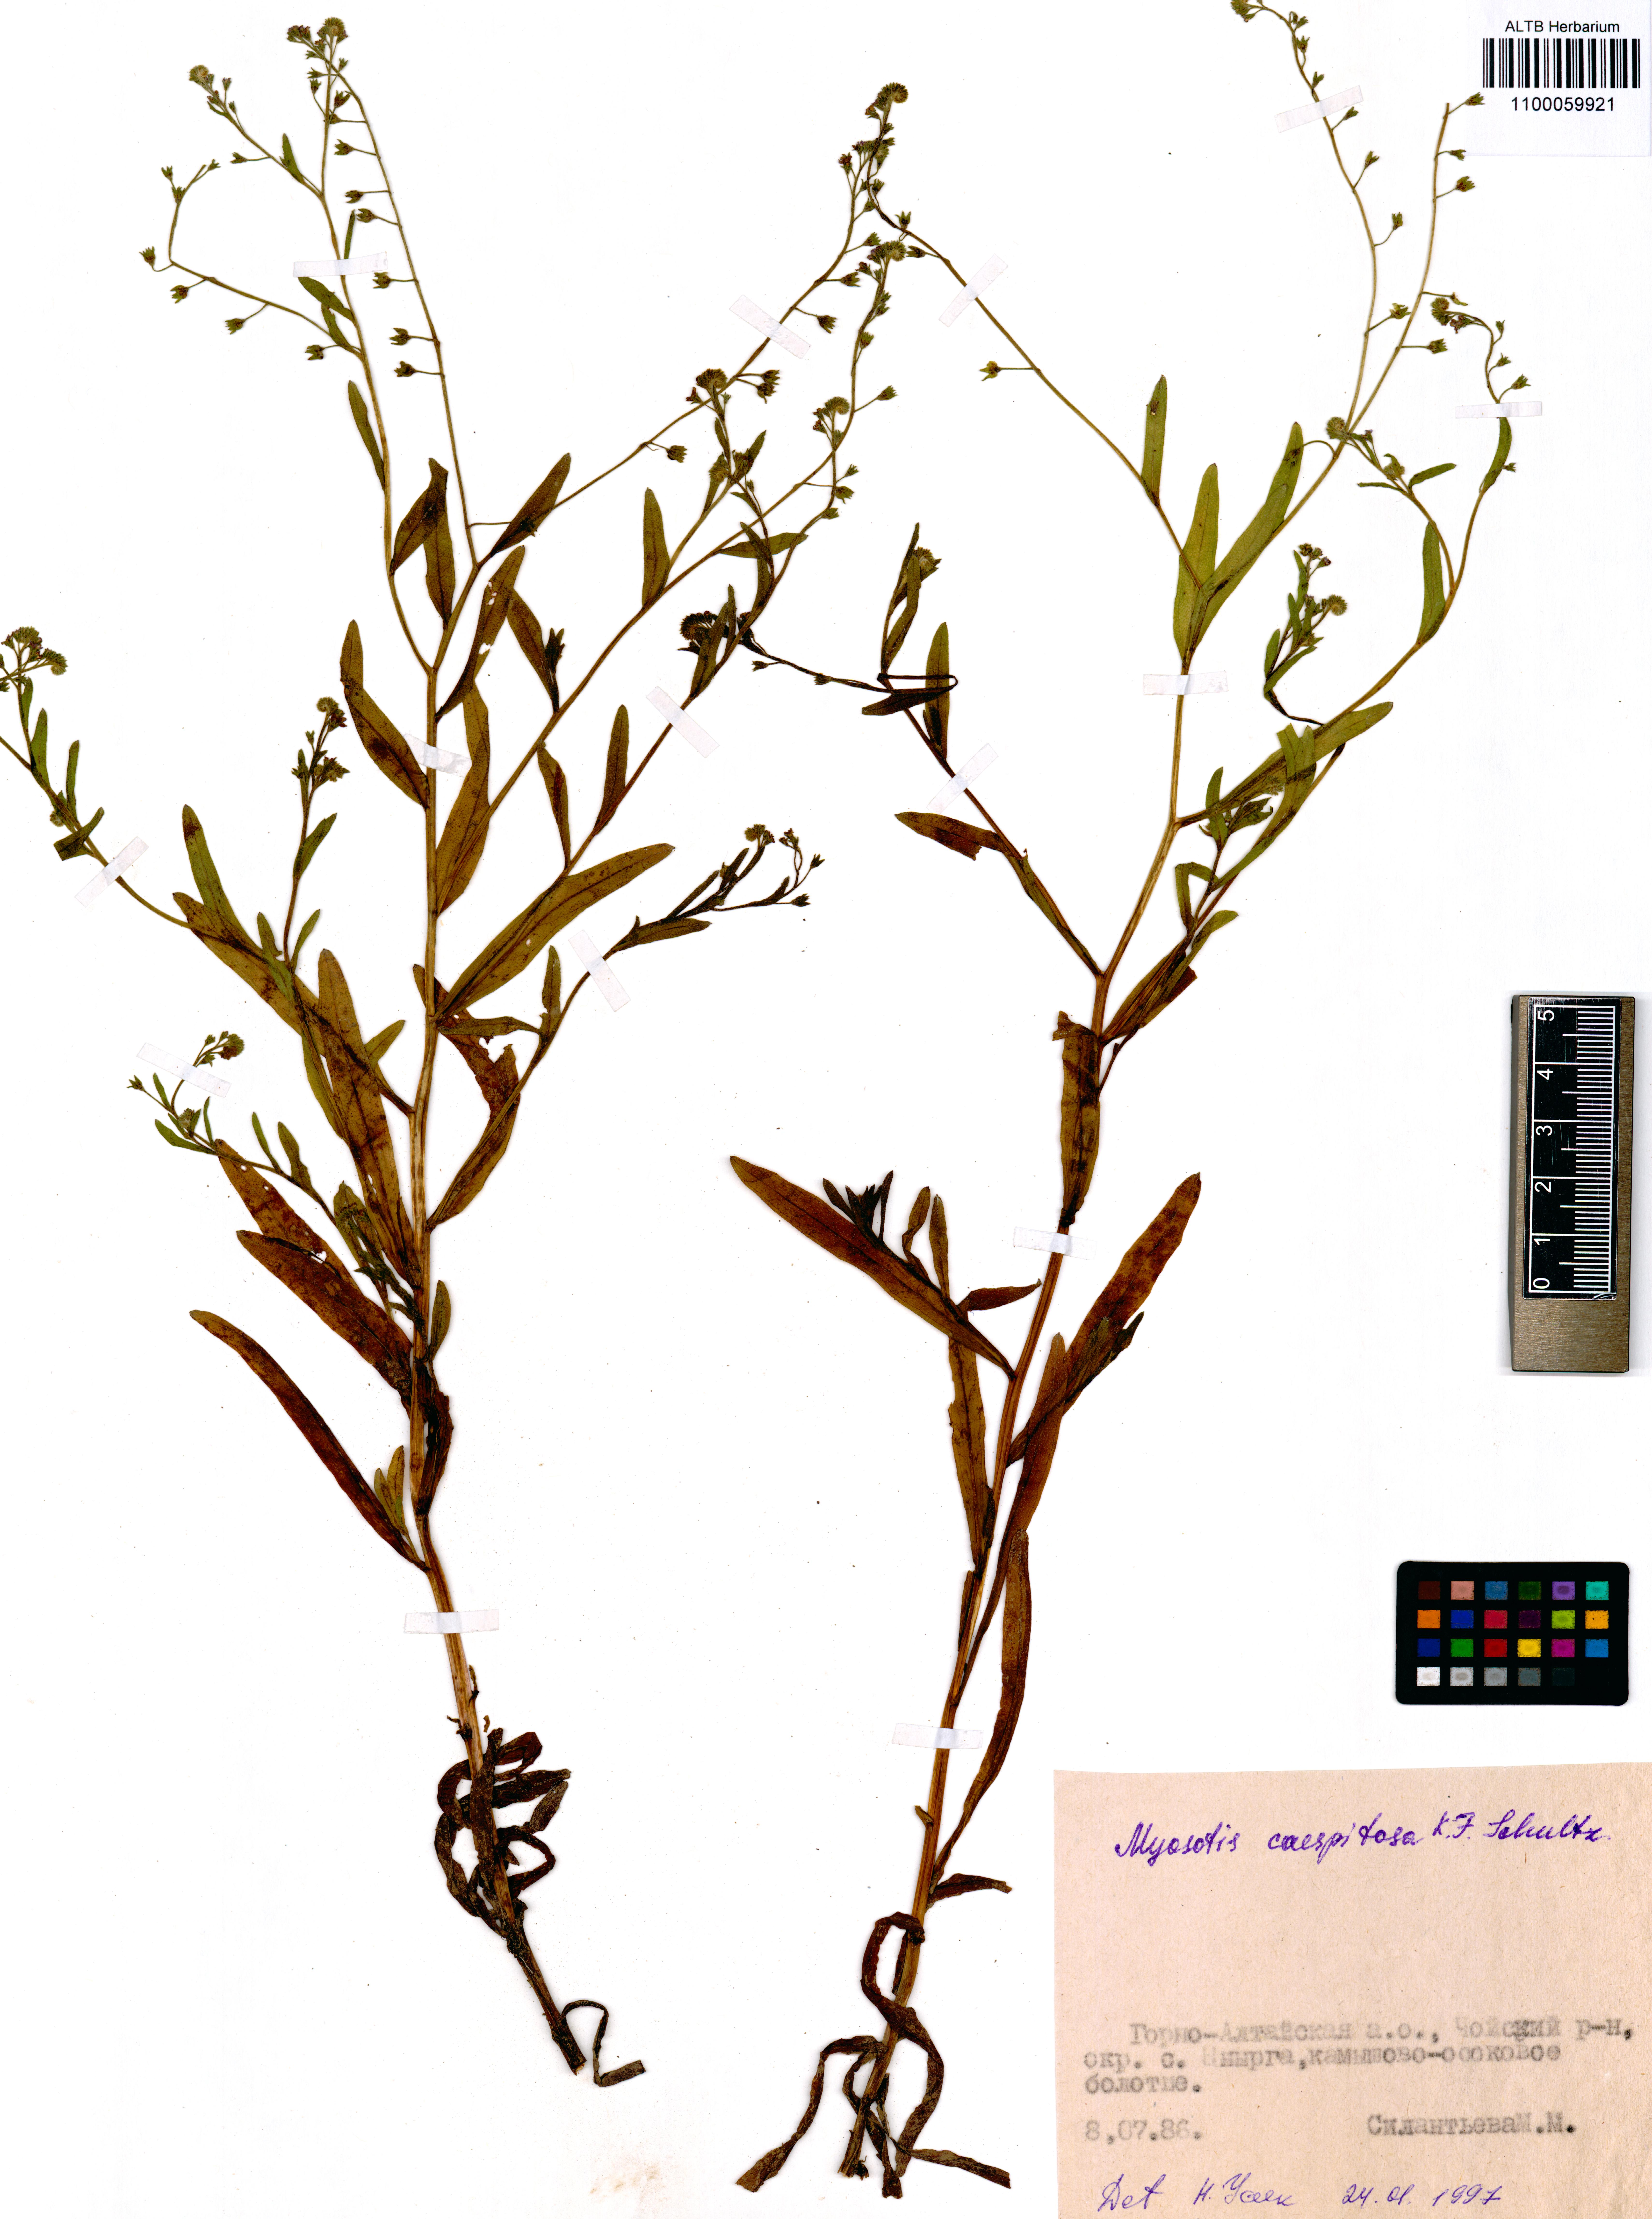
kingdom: Plantae
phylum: Tracheophyta
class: Magnoliopsida
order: Boraginales
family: Boraginaceae
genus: Myosotis
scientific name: Myosotis laxa
